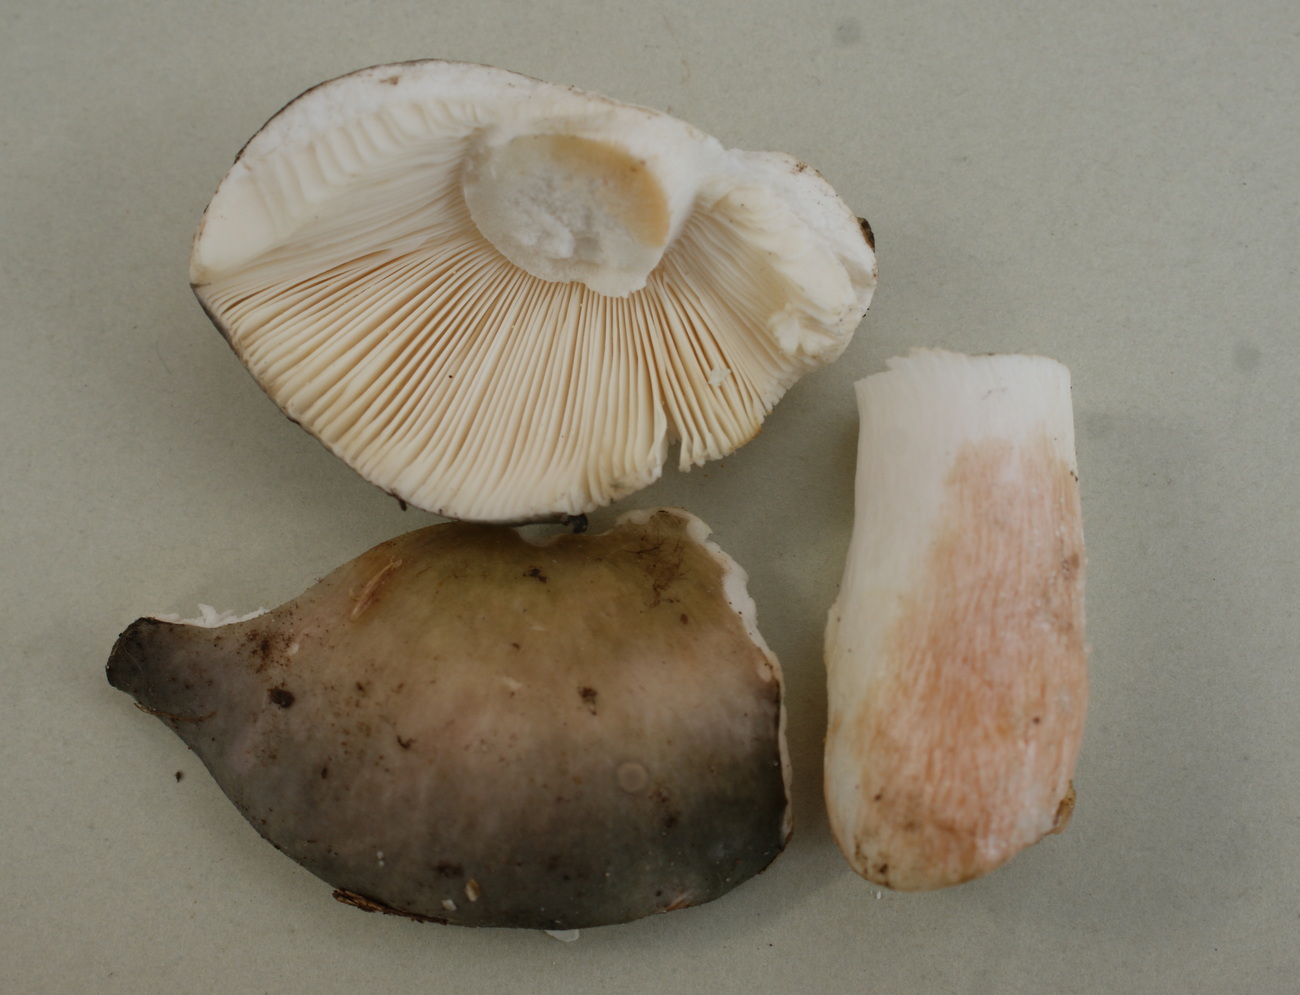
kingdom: Fungi
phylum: Basidiomycota
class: Agaricomycetes
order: Russulales
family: Russulaceae
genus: Russula
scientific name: Russula grisea
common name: grålig skørhat
